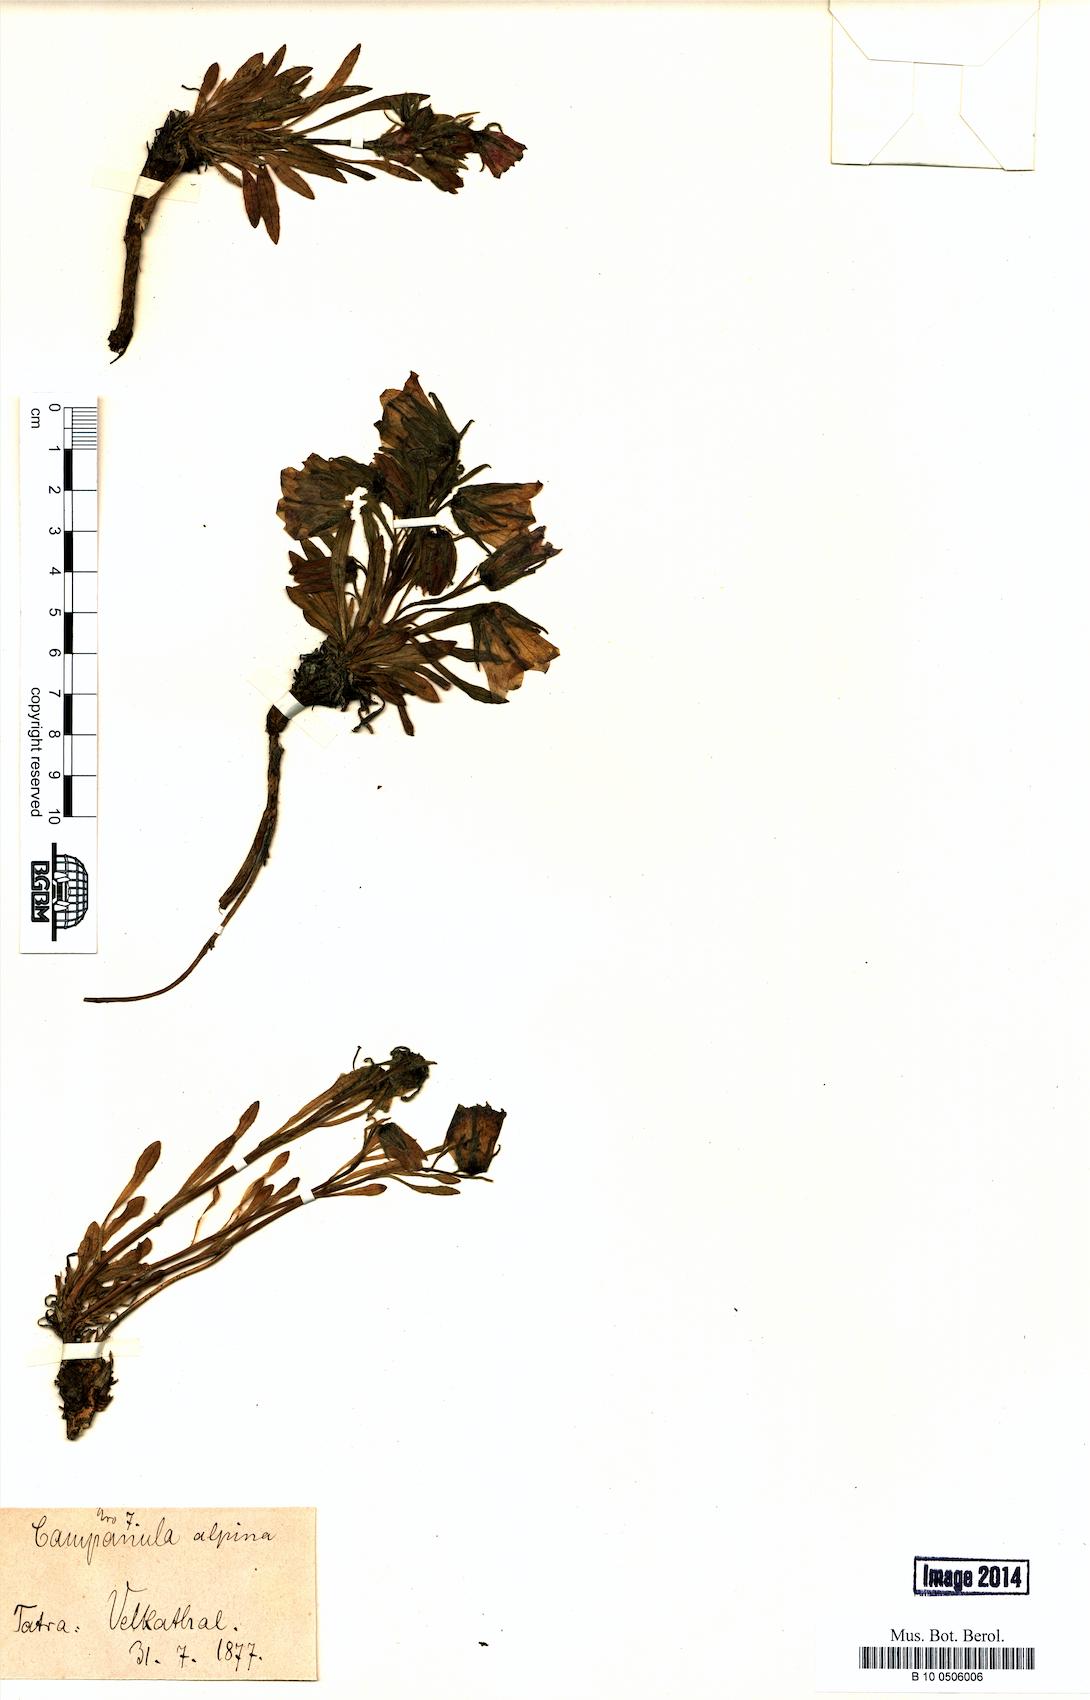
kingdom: Plantae
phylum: Tracheophyta
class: Magnoliopsida
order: Asterales
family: Campanulaceae
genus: Campanula
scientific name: Campanula alpina
